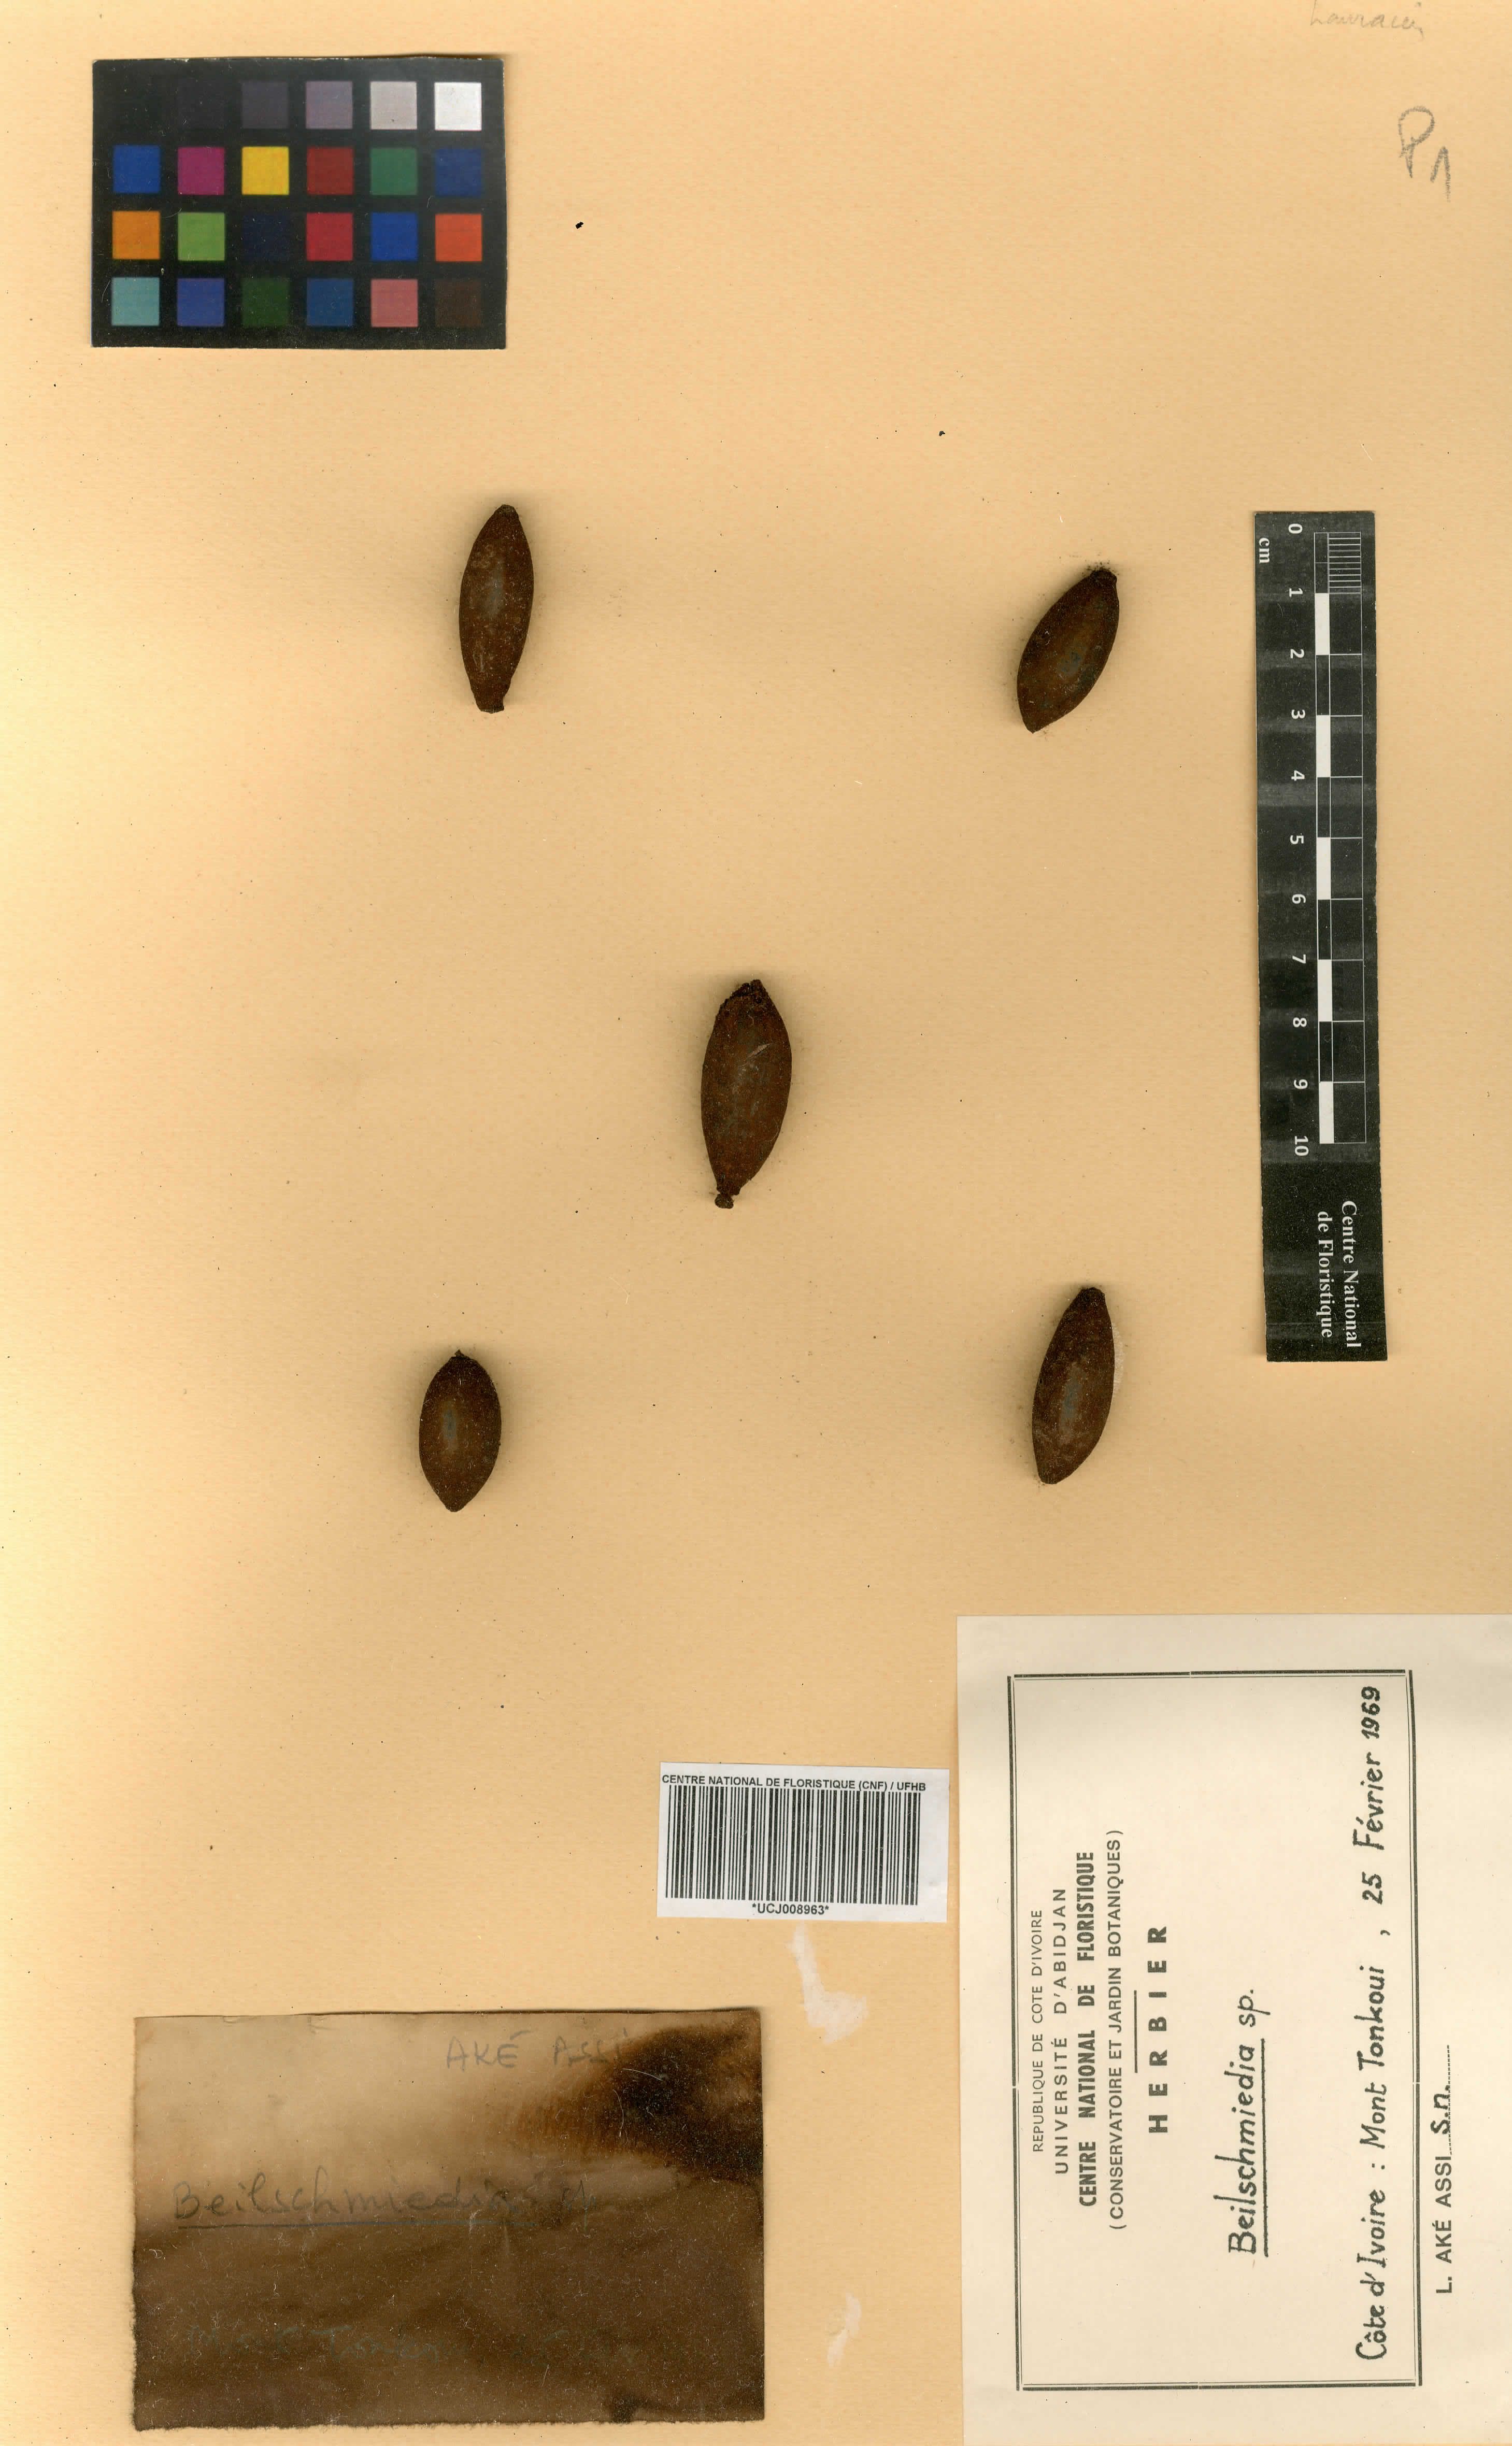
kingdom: Plantae
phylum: Tracheophyta
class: Magnoliopsida
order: Laurales
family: Lauraceae
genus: Beilschmiedia
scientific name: Beilschmiedia
